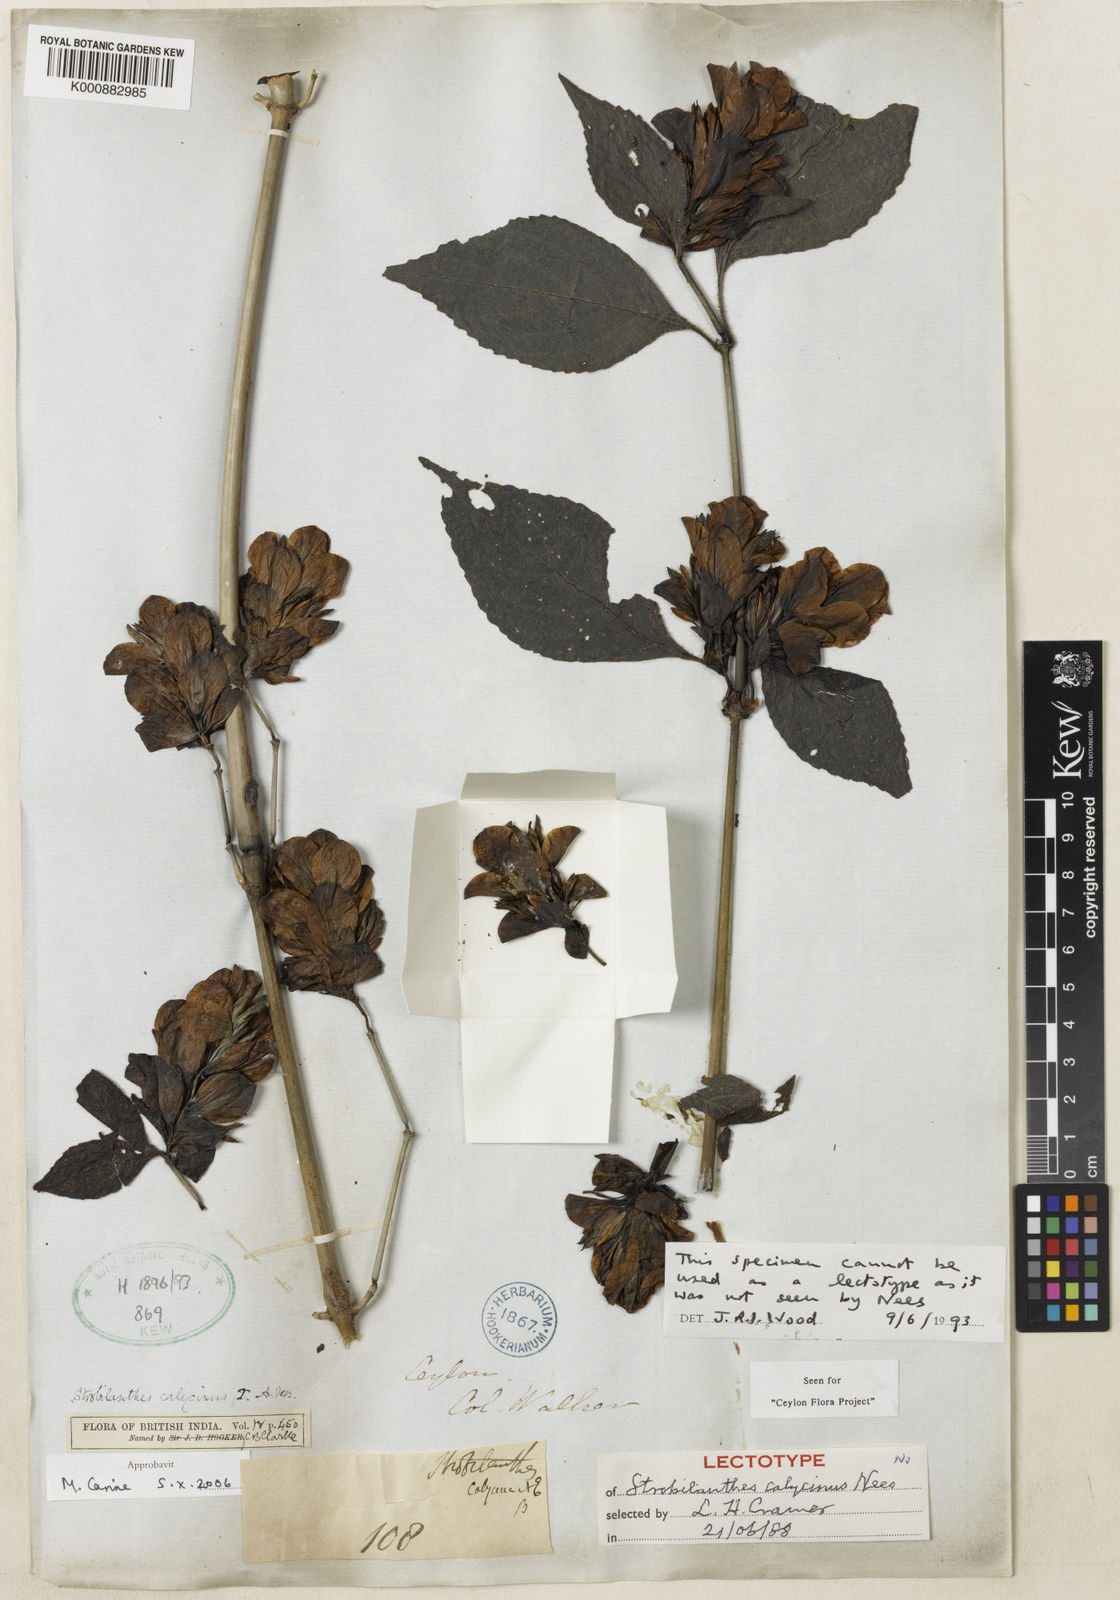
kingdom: Plantae
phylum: Tracheophyta
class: Magnoliopsida
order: Lamiales
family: Acanthaceae
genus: Strobilanthes
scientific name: Strobilanthes calycina
